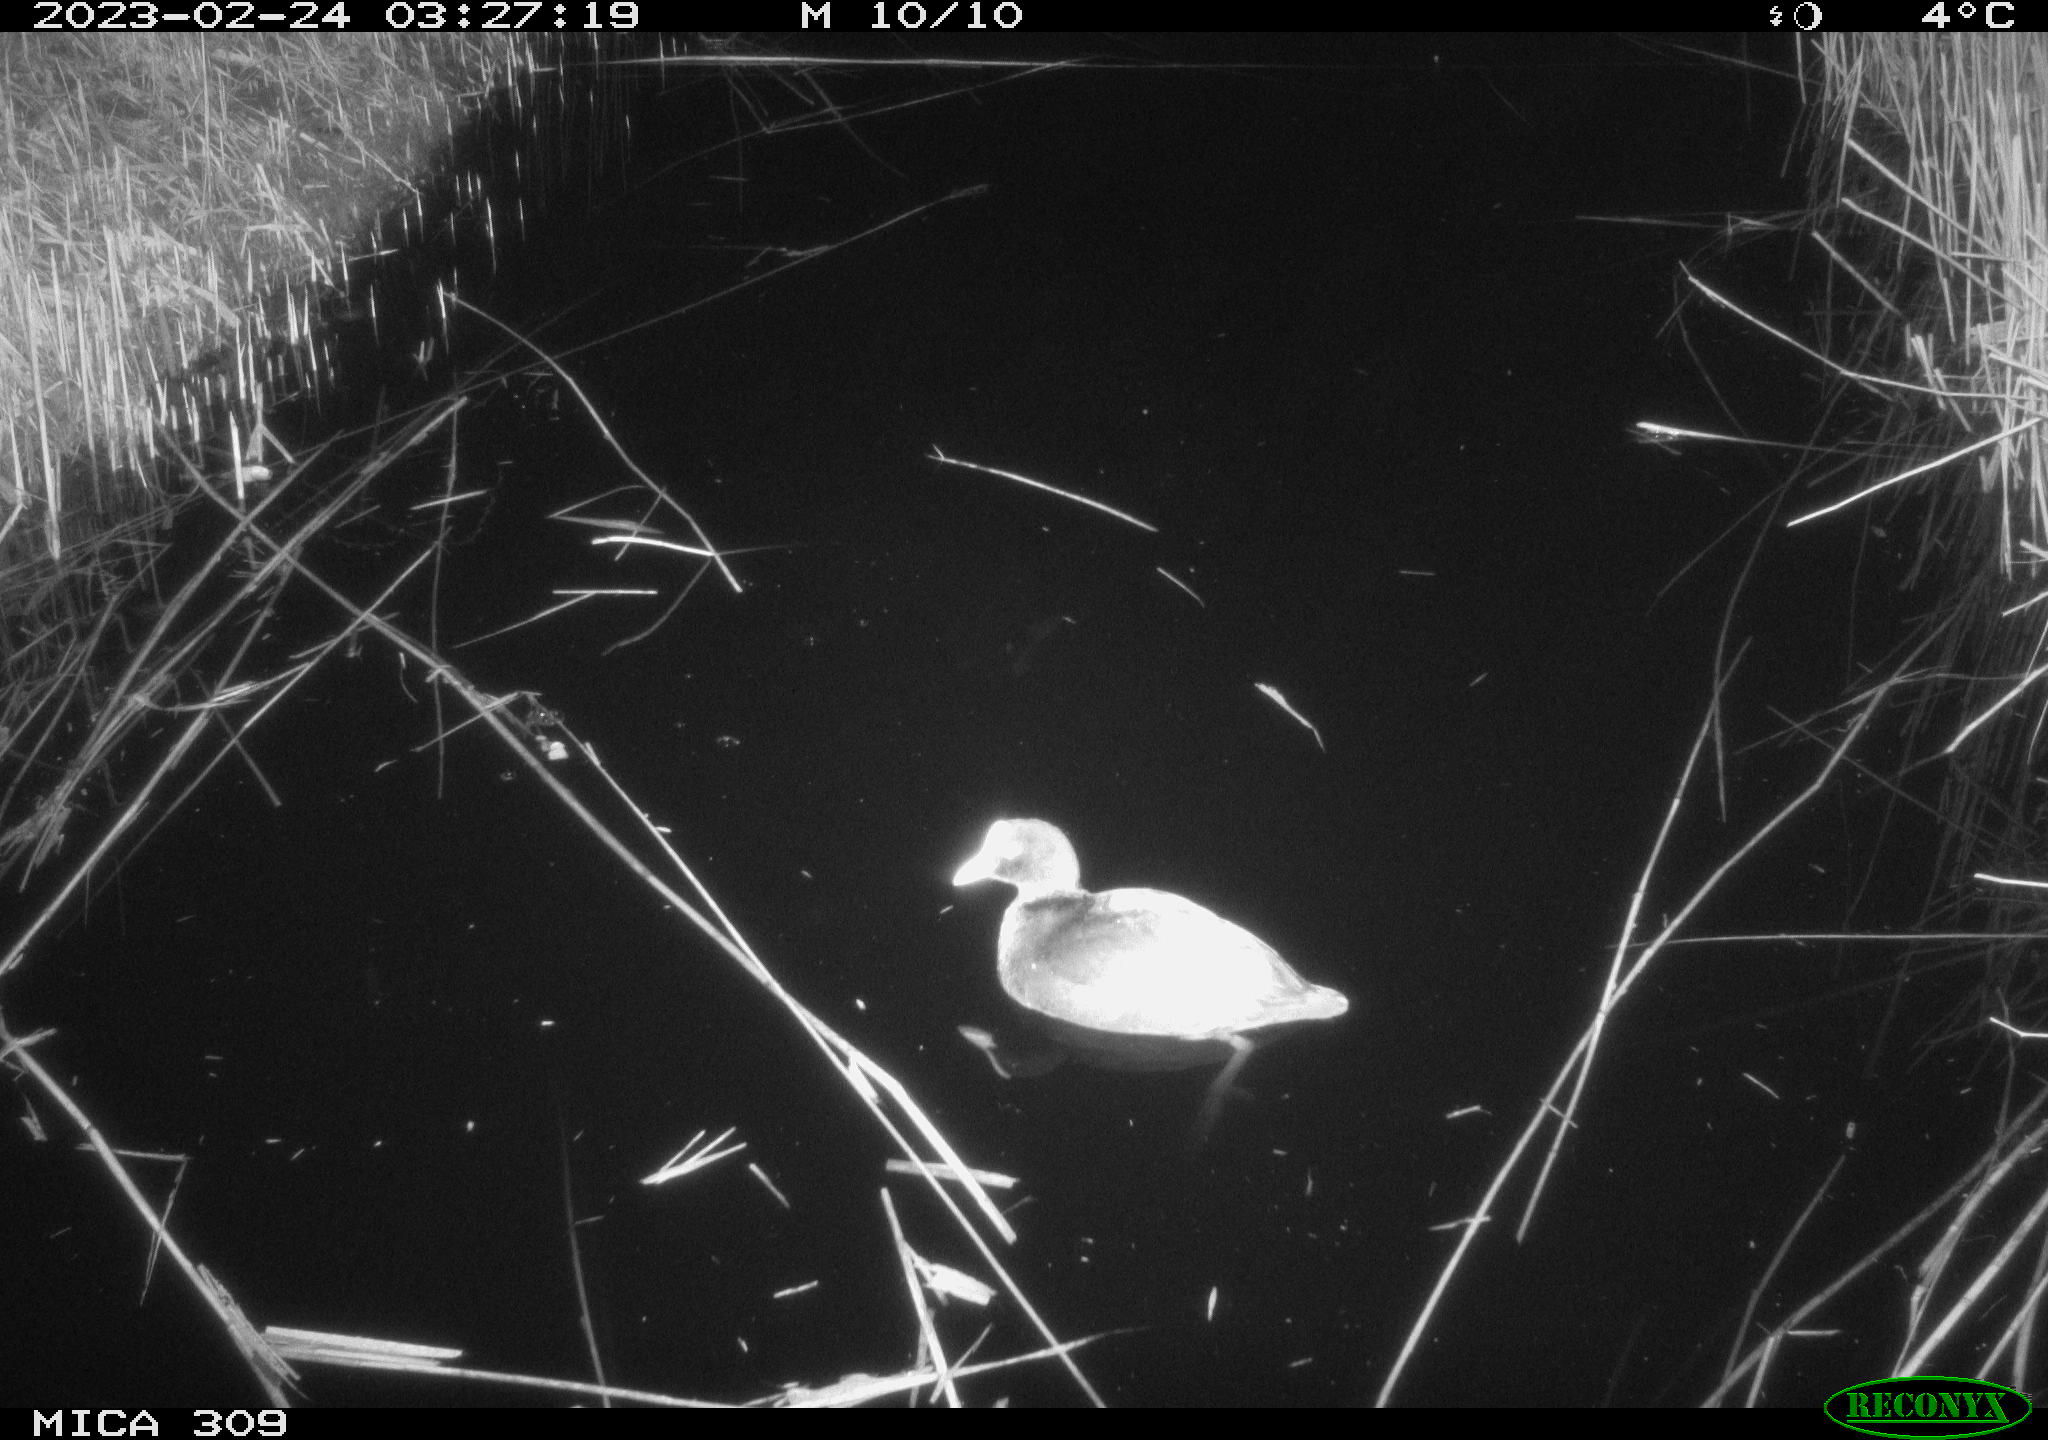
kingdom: Animalia
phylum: Chordata
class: Aves
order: Anseriformes
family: Anatidae
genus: Anas
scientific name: Anas
